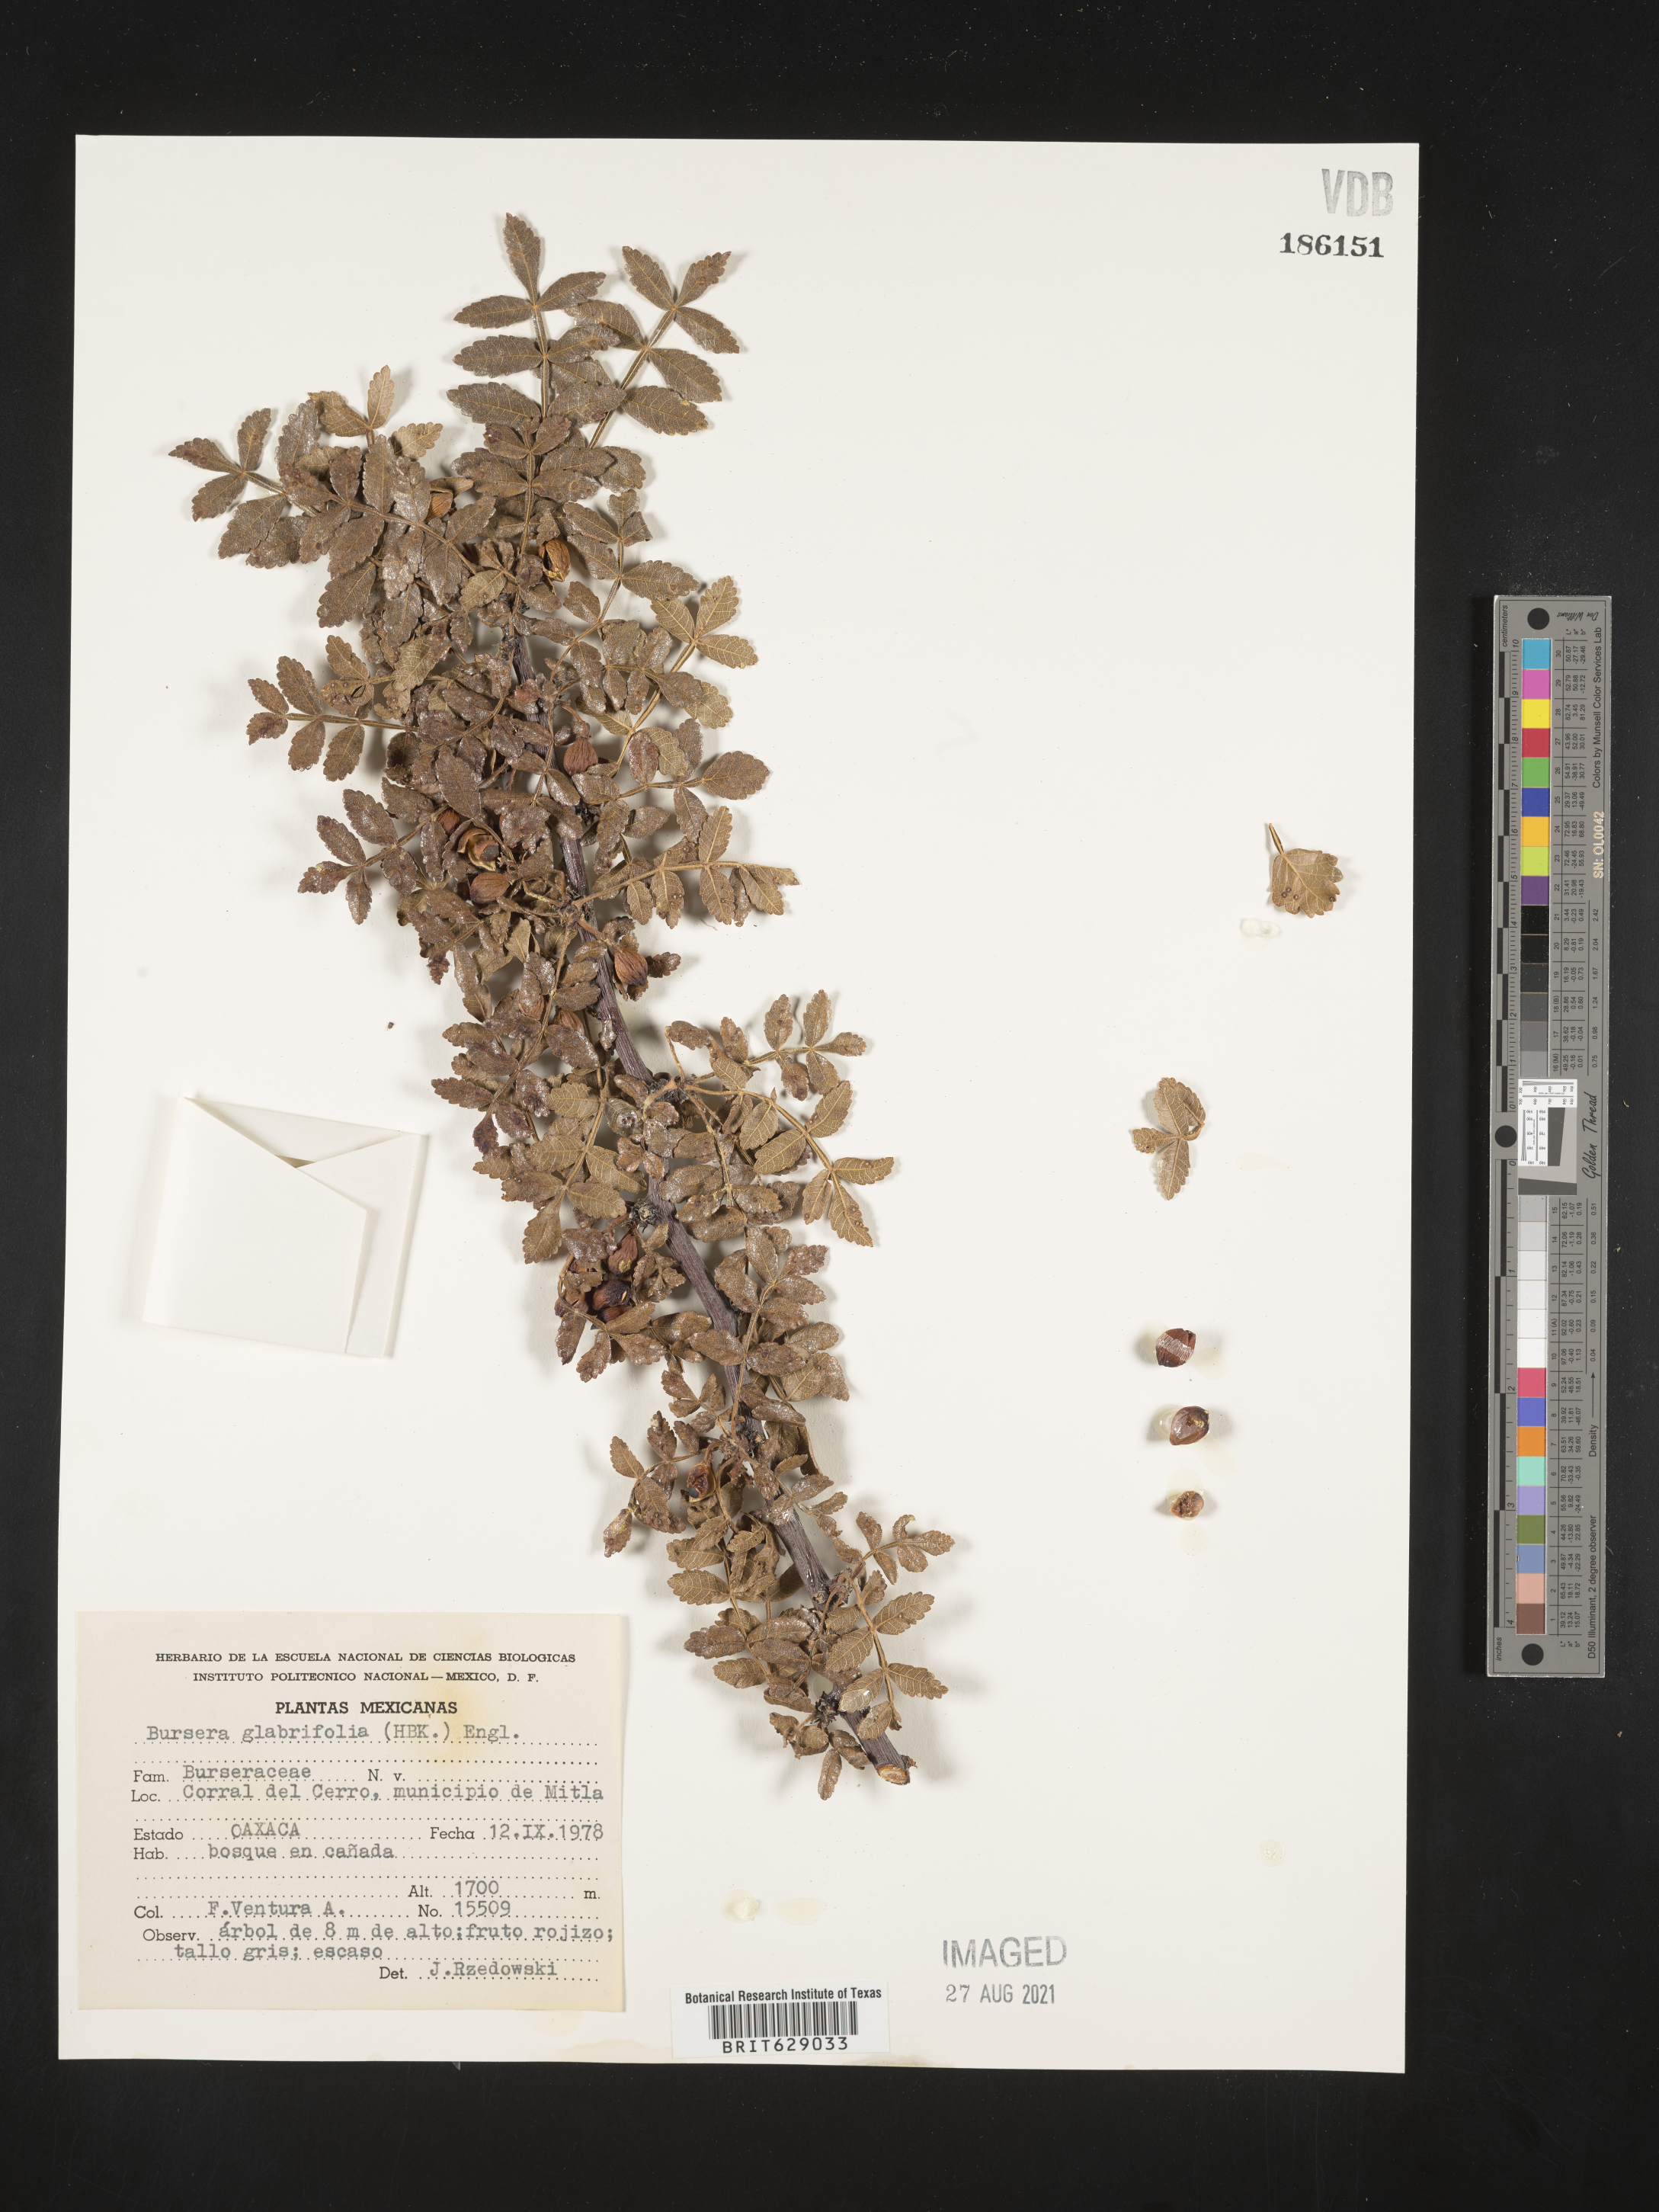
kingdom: Plantae
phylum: Tracheophyta
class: Magnoliopsida
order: Sapindales
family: Burseraceae
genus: Bursera
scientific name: Bursera
